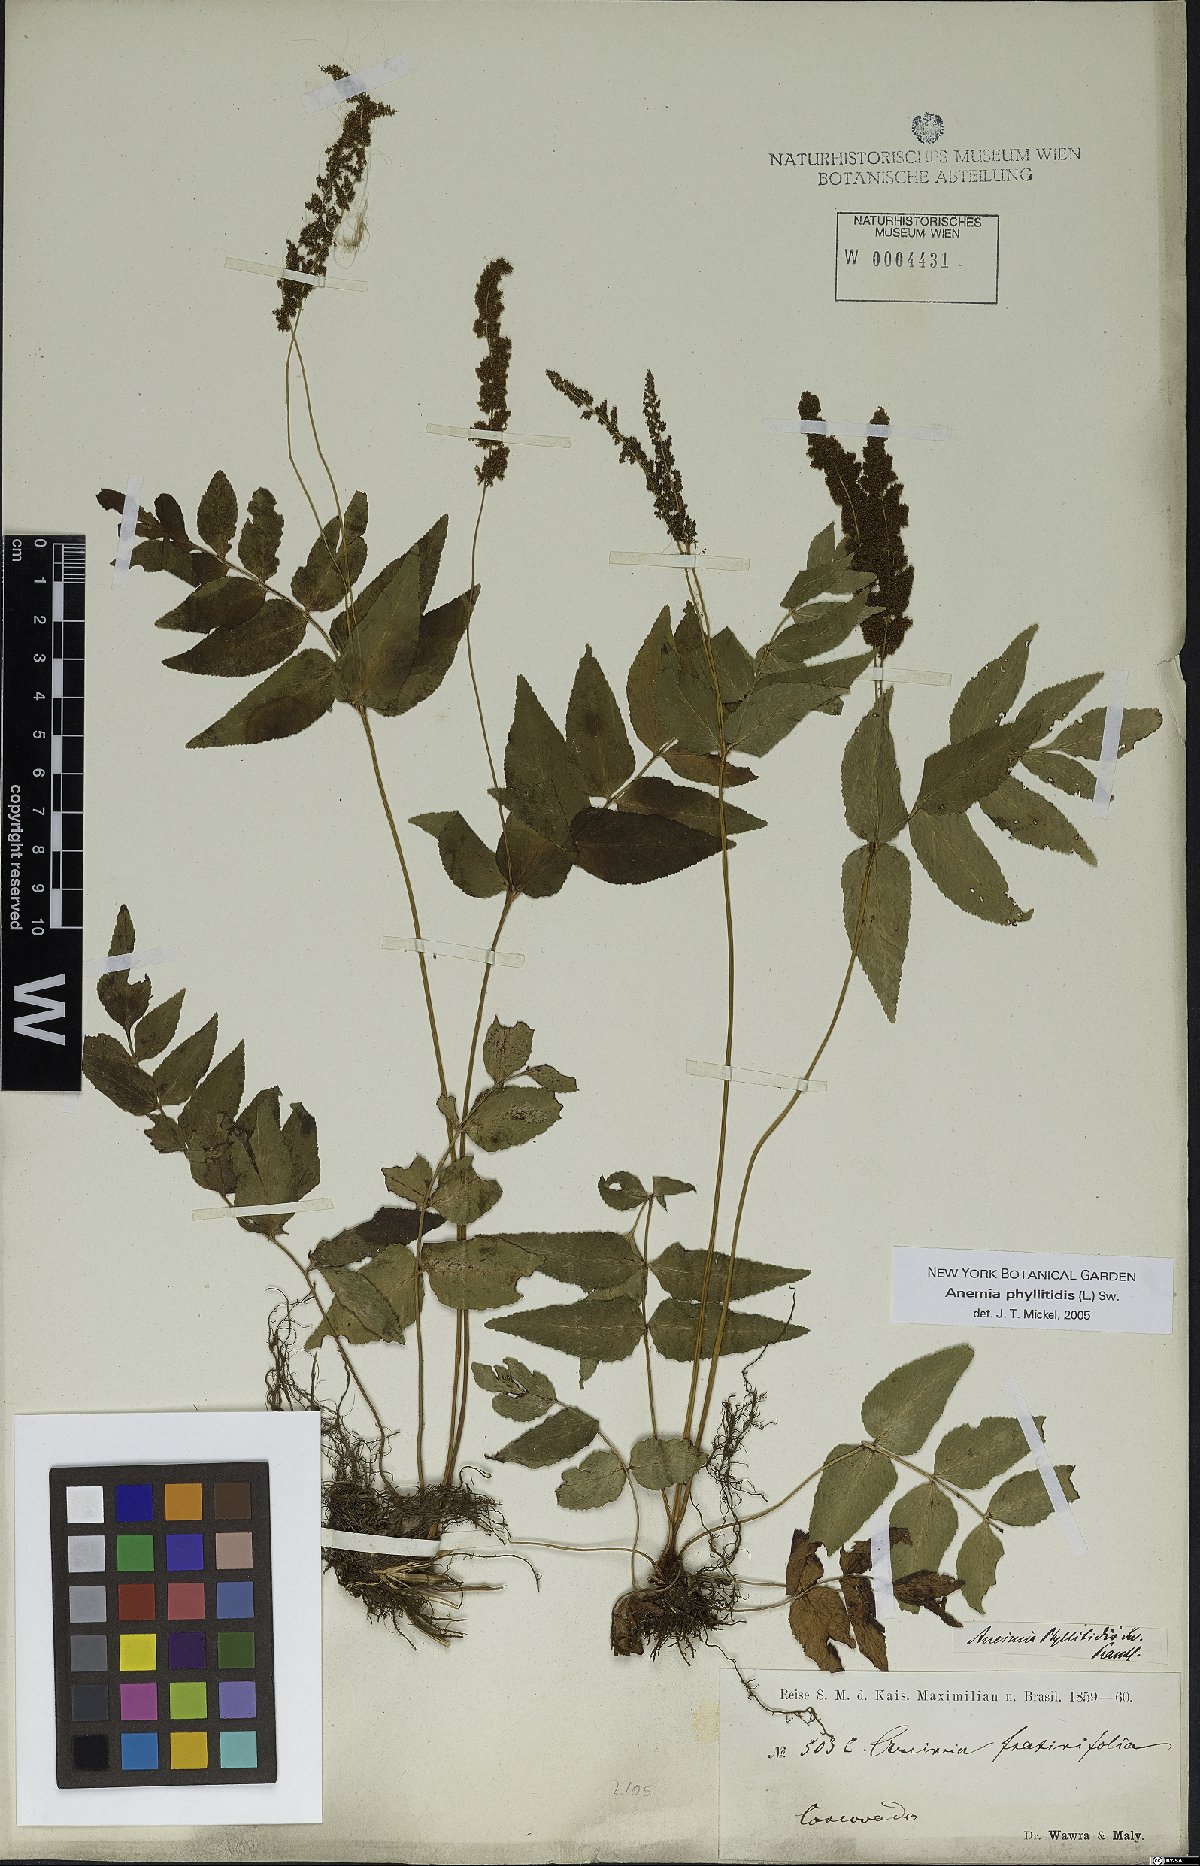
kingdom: Plantae
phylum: Tracheophyta
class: Polypodiopsida
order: Schizaeales
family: Anemiaceae
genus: Anemia
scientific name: Anemia phyllitidis
